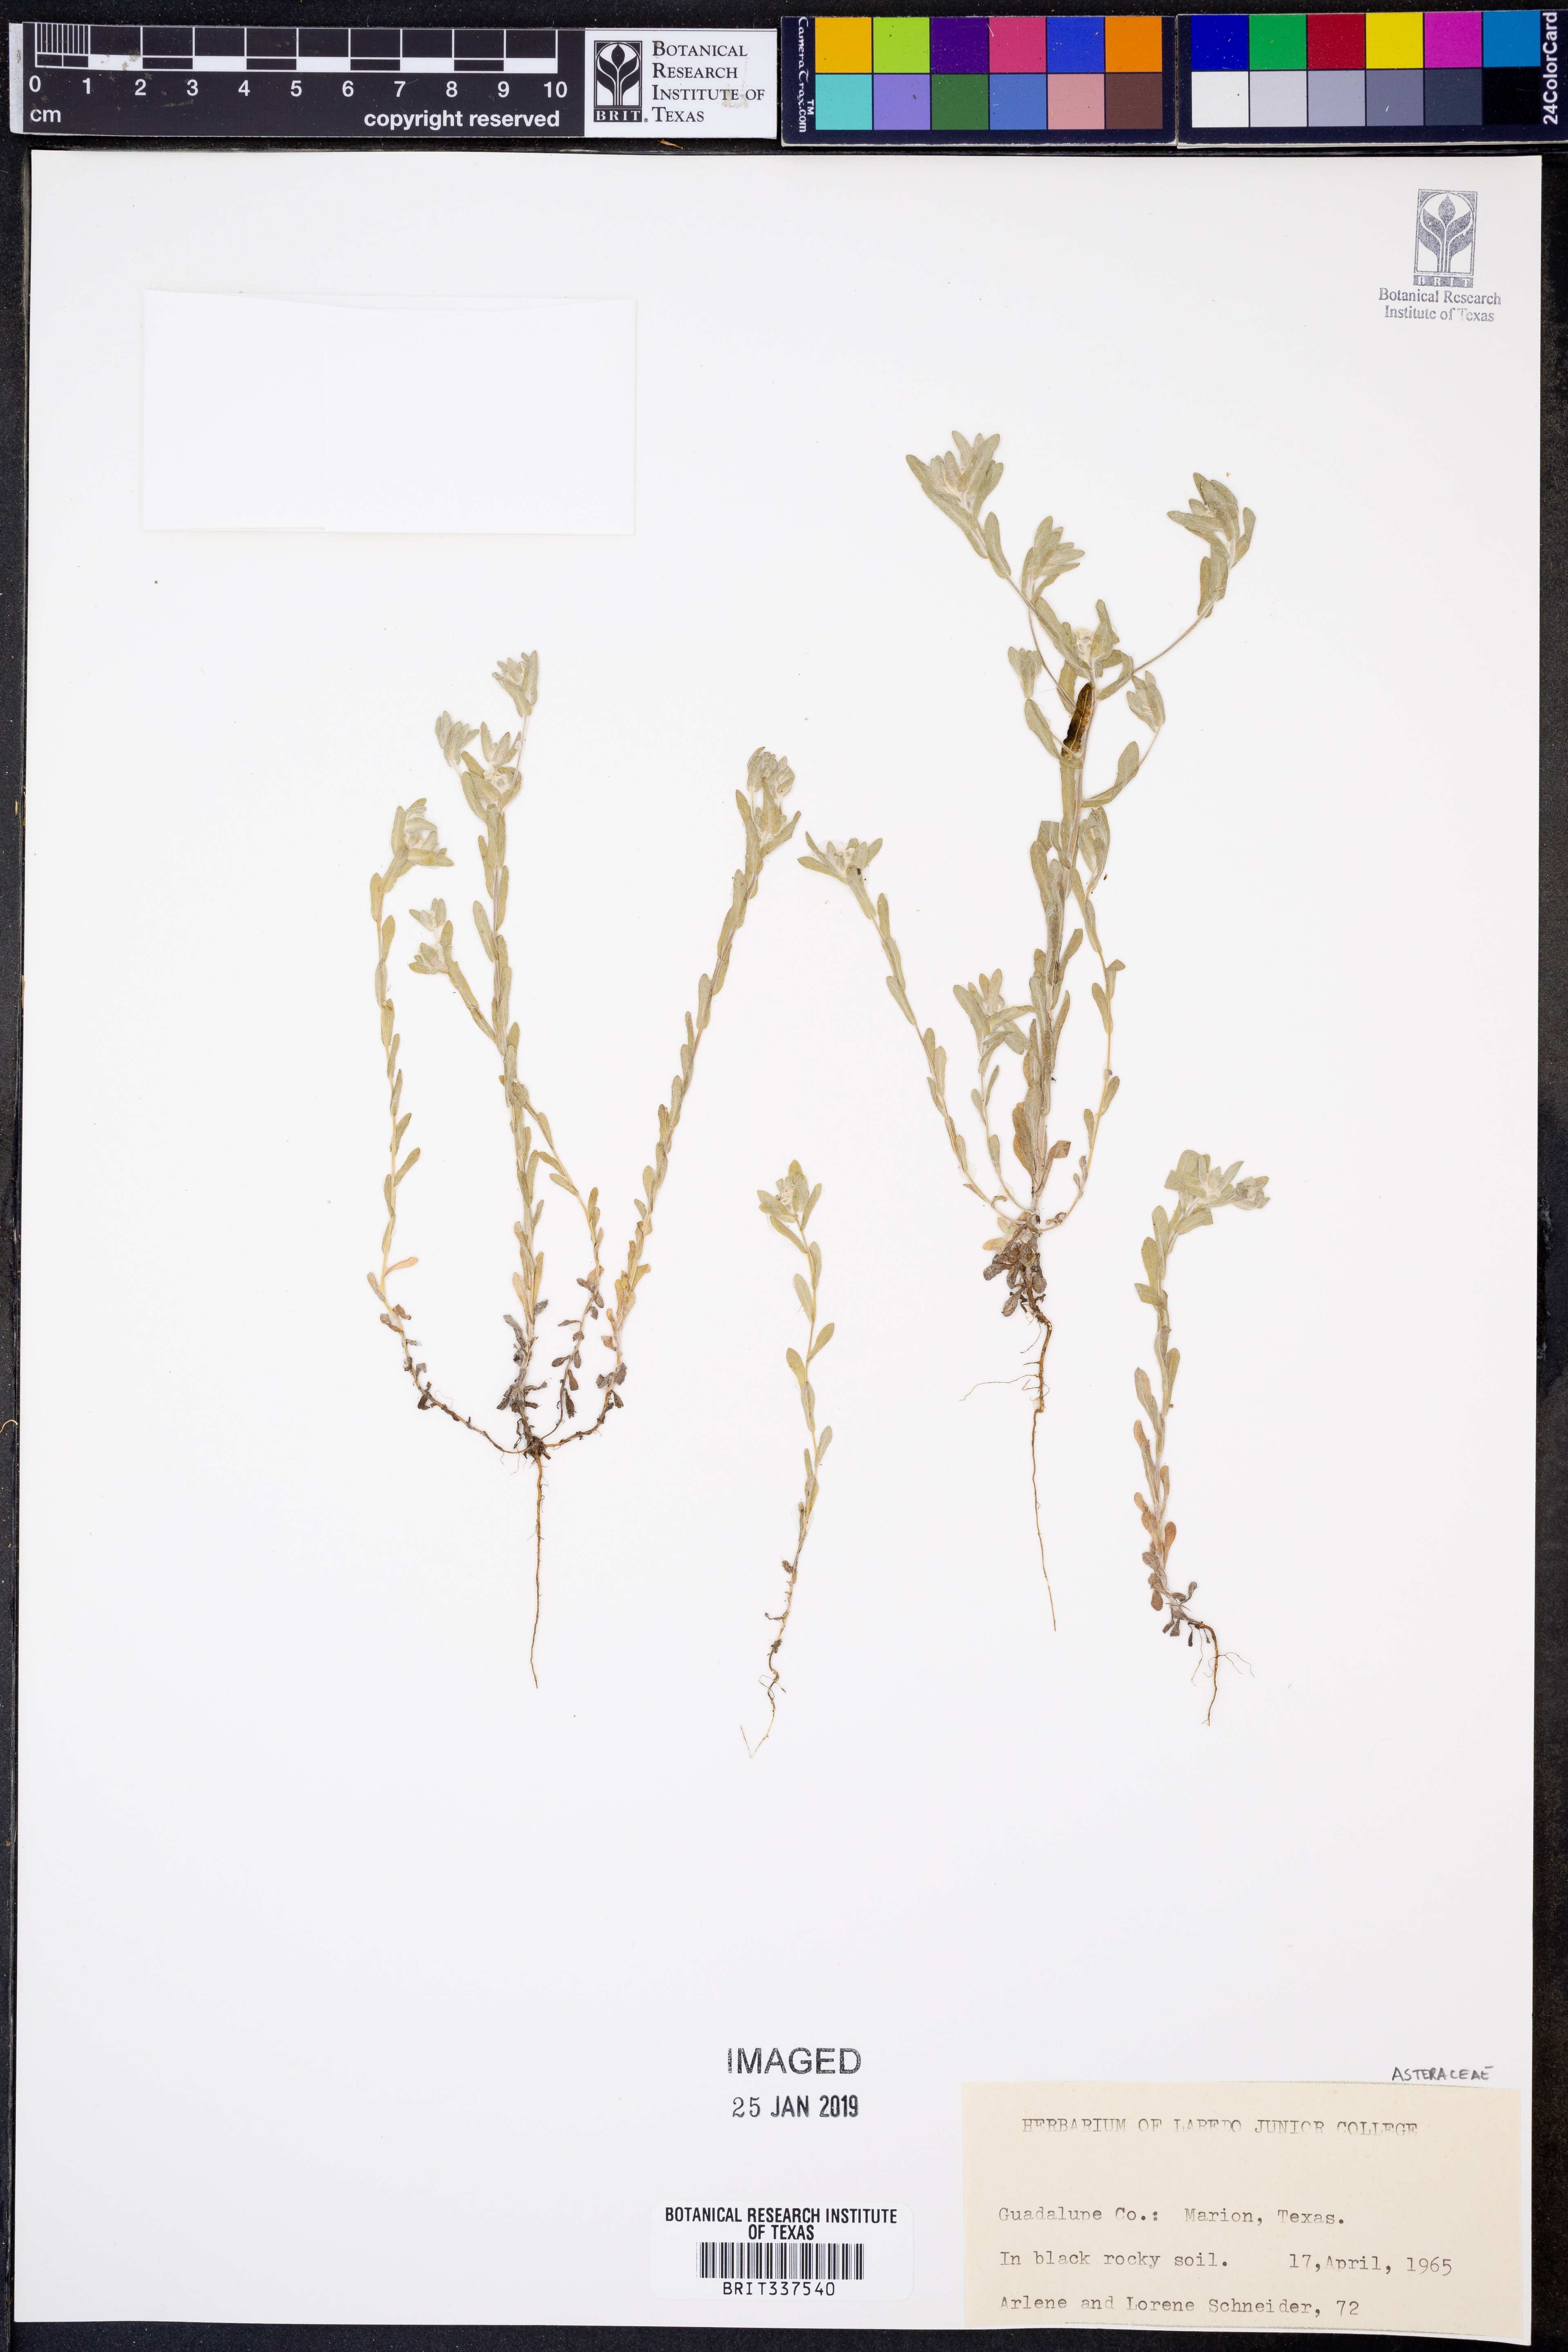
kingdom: Plantae
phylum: Tracheophyta
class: Magnoliopsida
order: Asterales
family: Asteraceae
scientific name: Asteraceae
